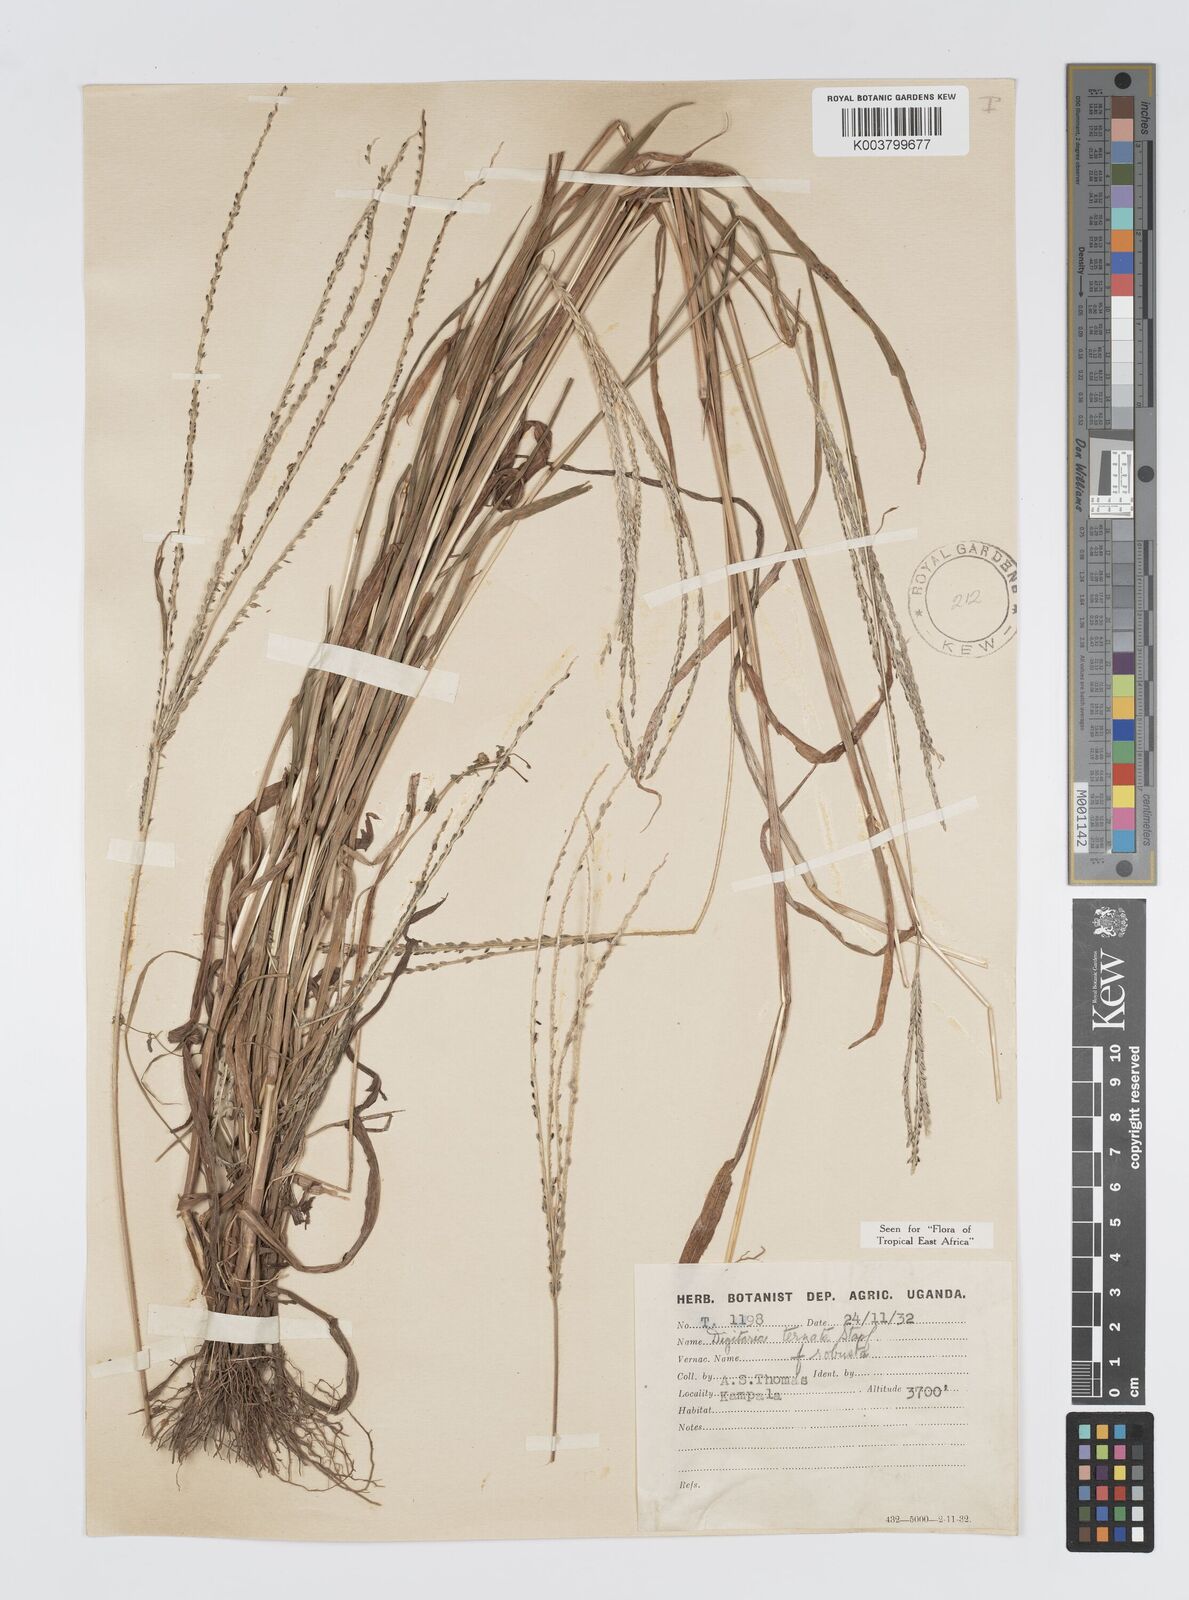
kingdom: Plantae
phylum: Tracheophyta
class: Liliopsida
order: Poales
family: Poaceae
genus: Digitaria
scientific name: Digitaria ternata
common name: Blackseed crabgrass
